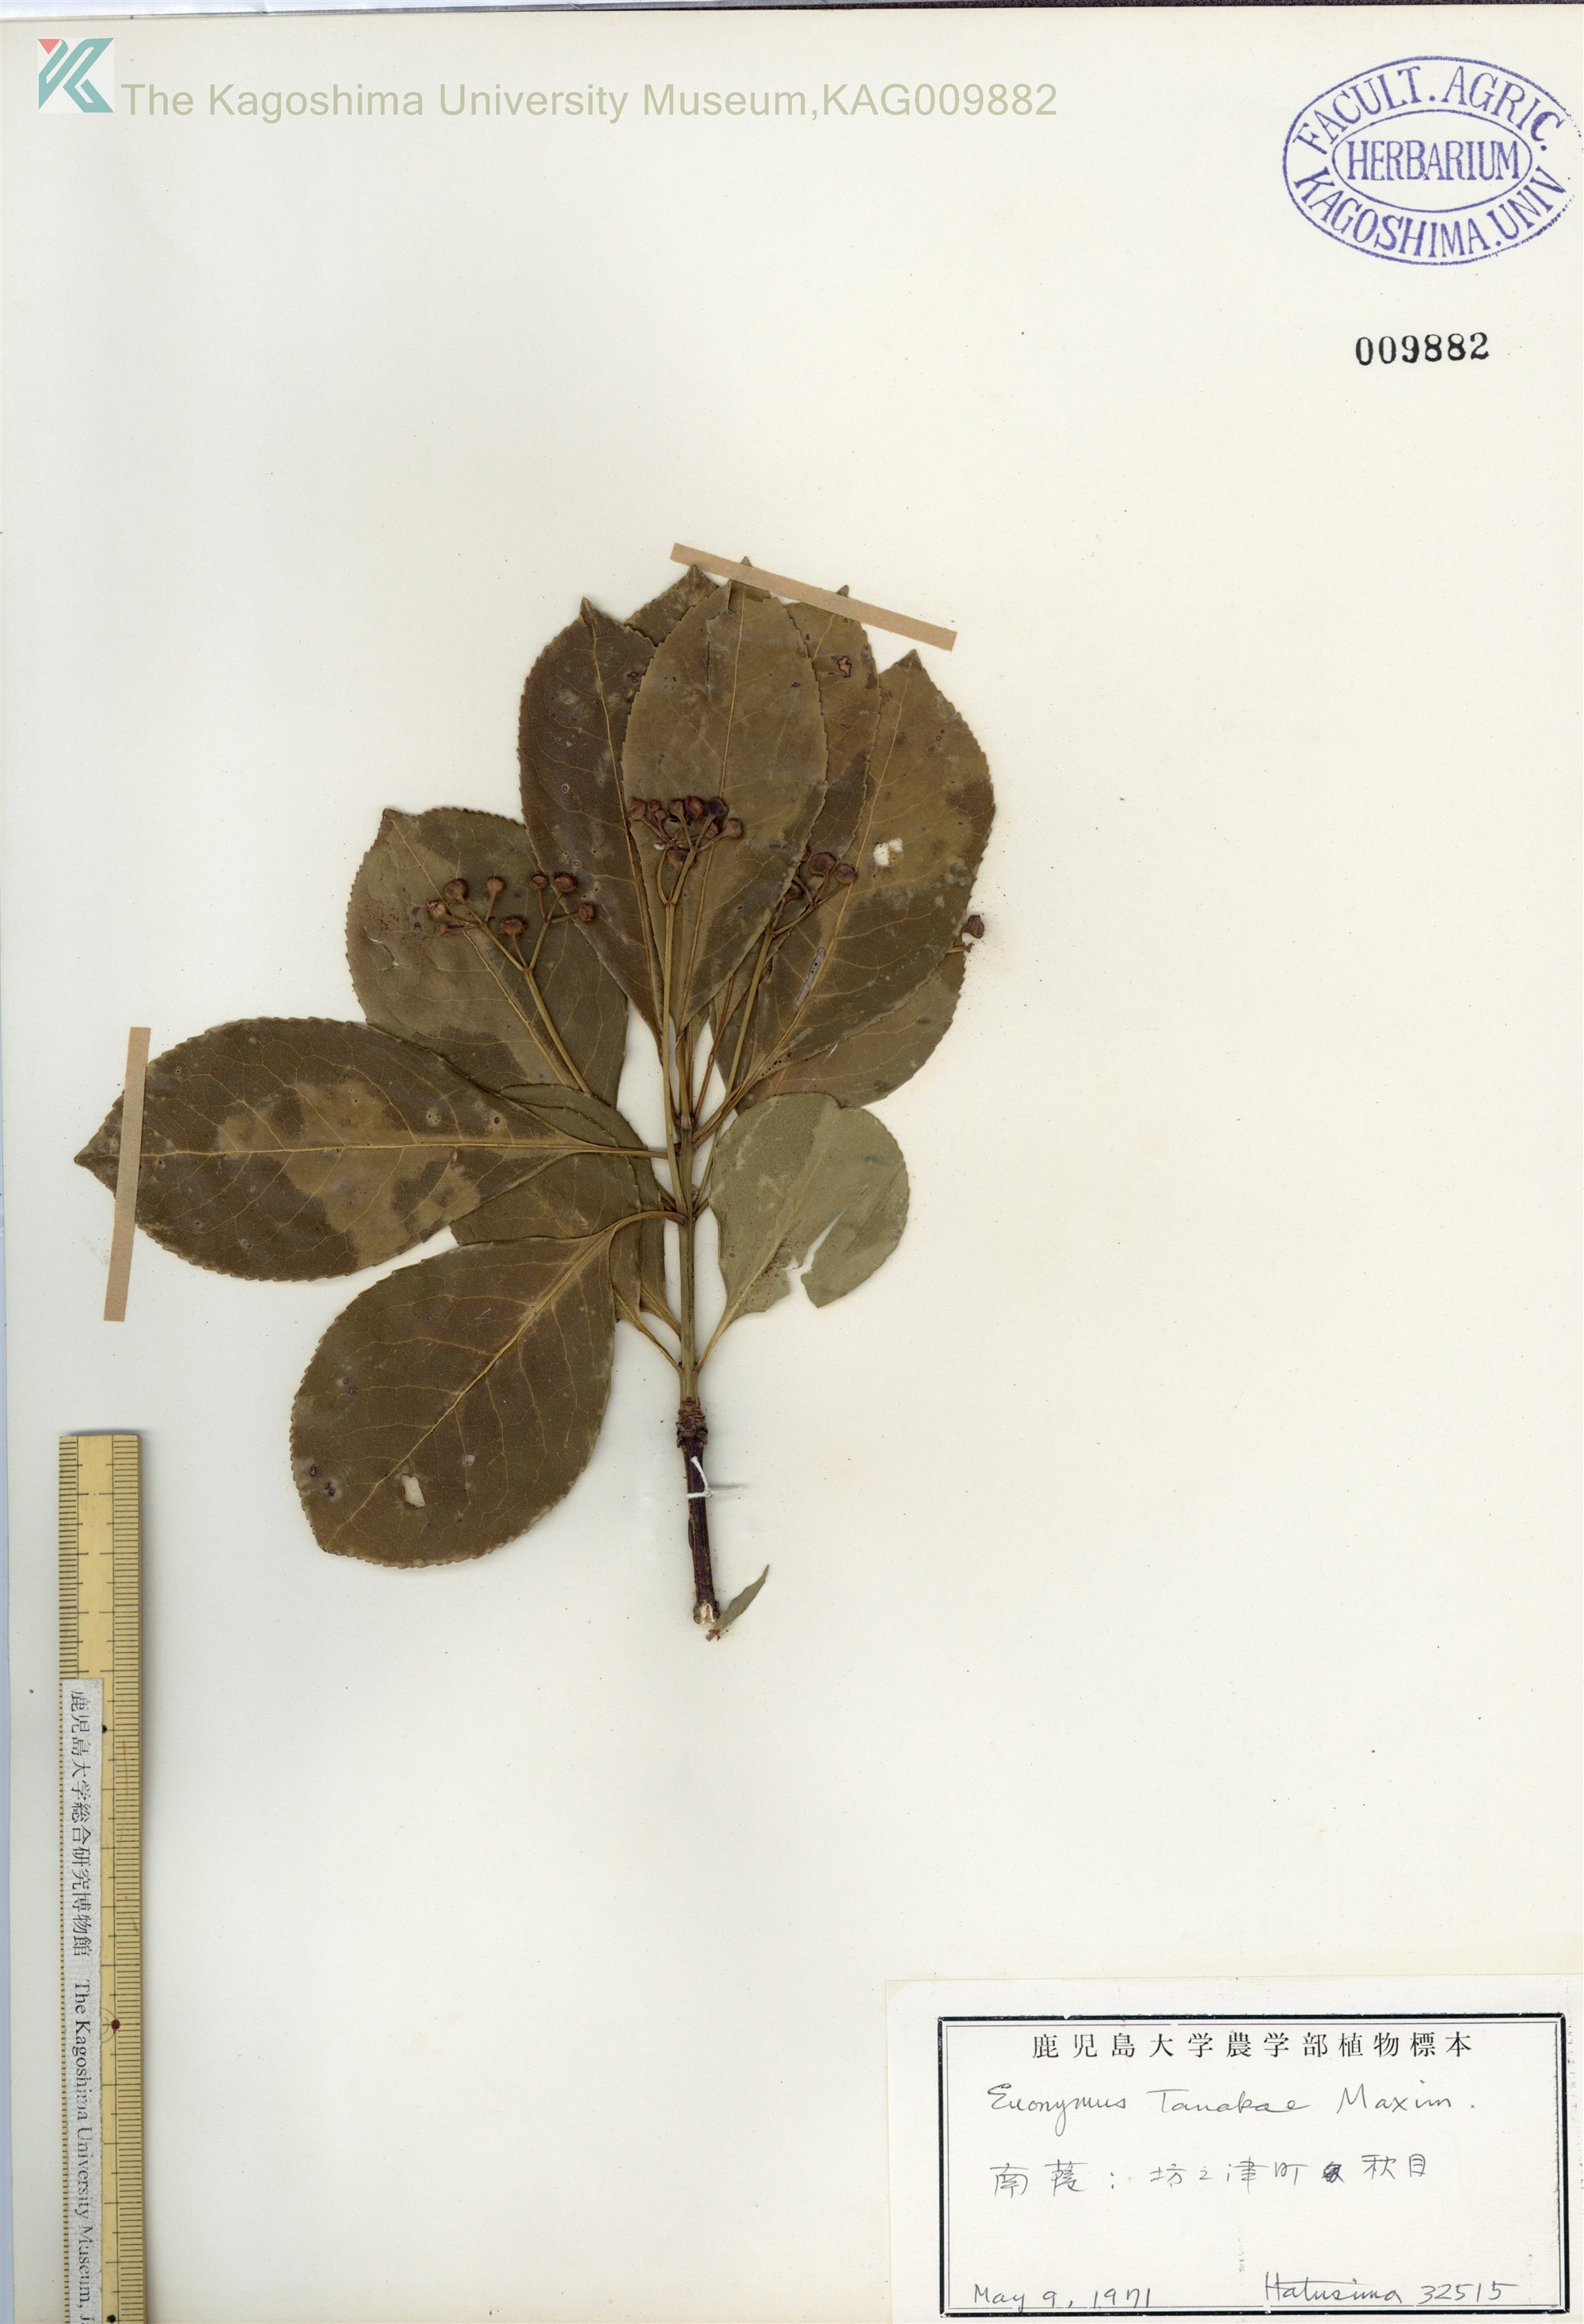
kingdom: Plantae
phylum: Tracheophyta
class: Magnoliopsida
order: Celastrales
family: Celastraceae
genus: Euonymus
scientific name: Euonymus carnosus
